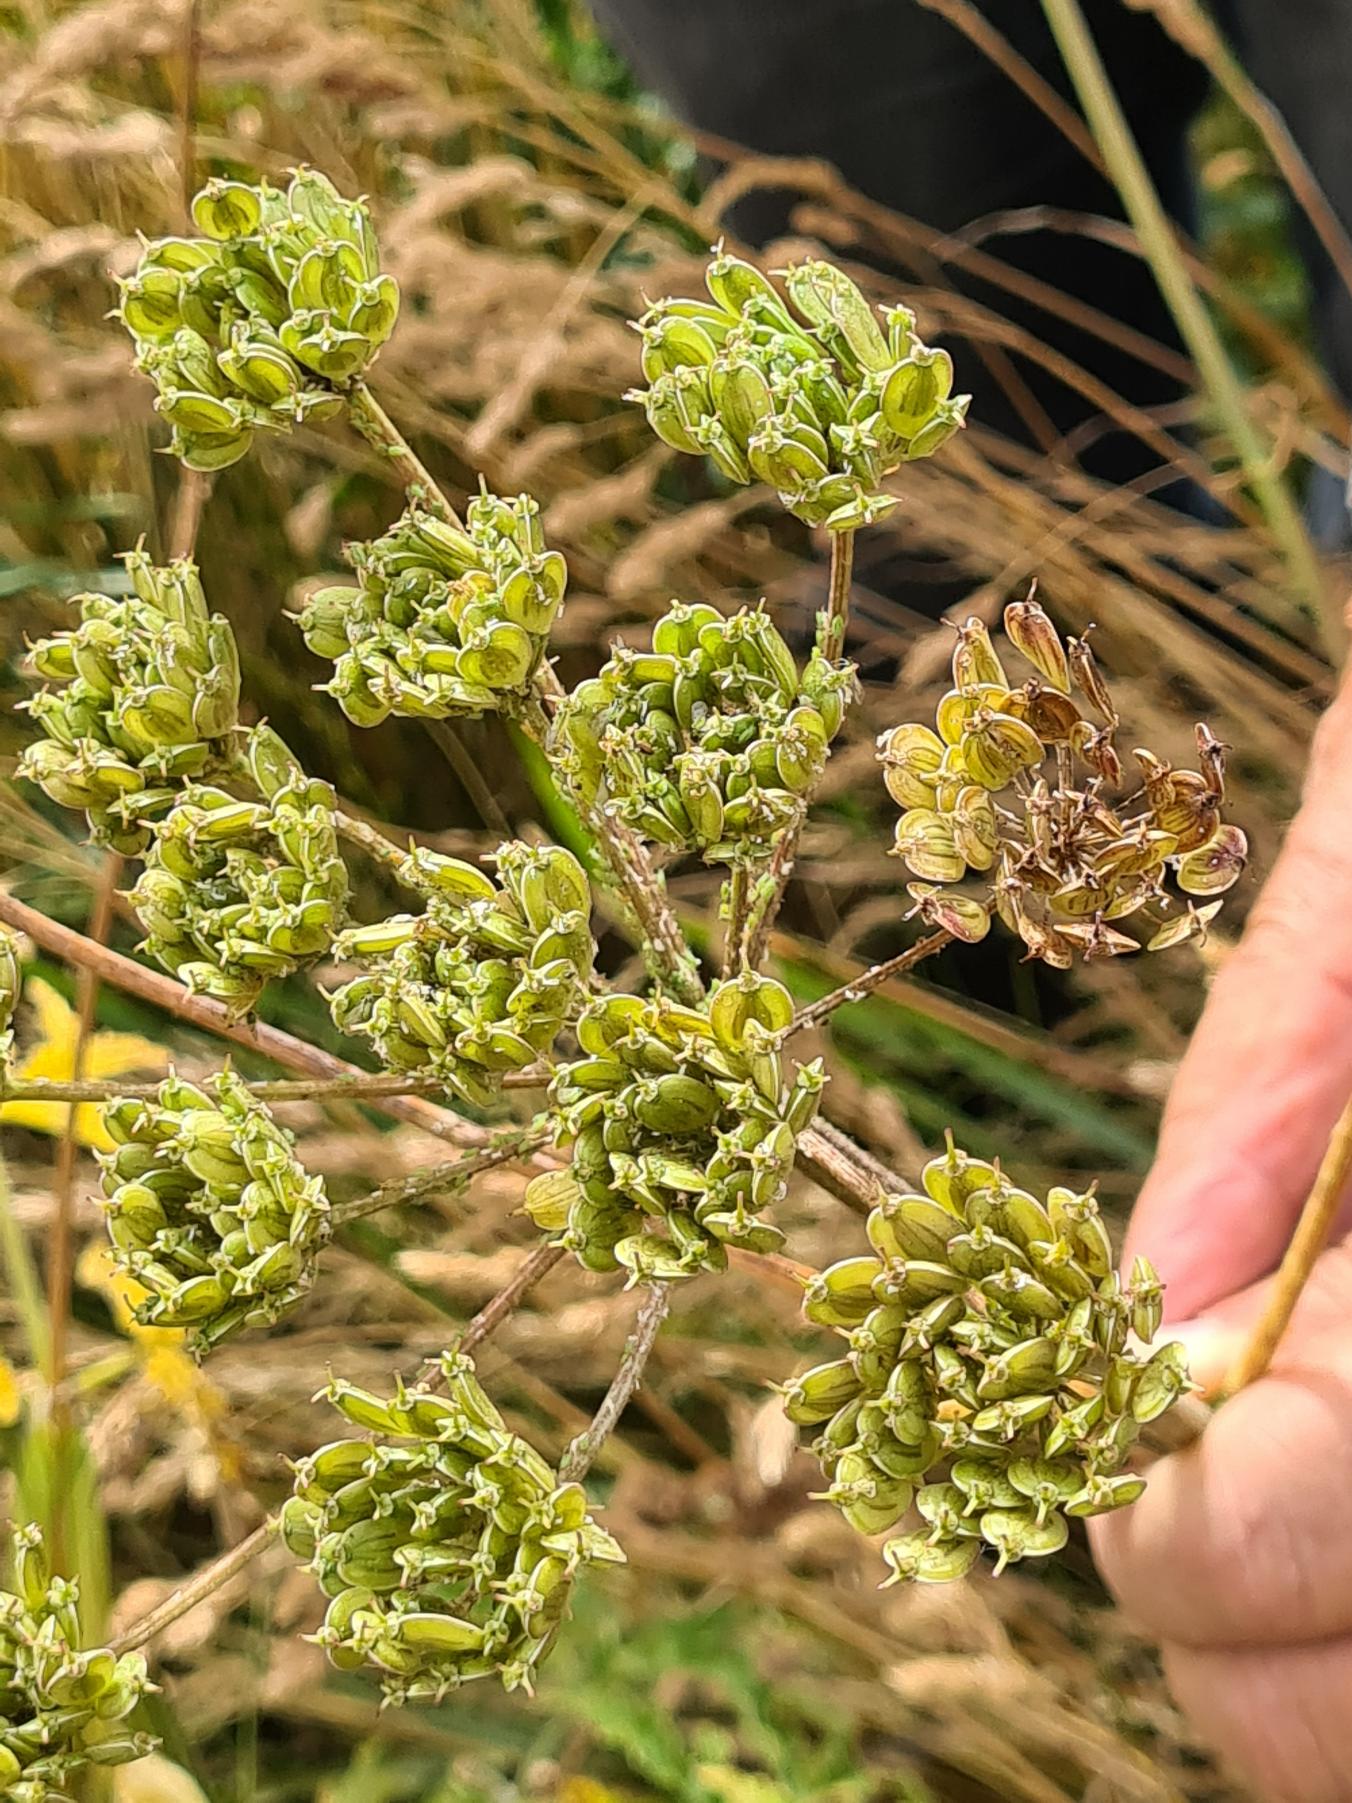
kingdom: Plantae
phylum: Tracheophyta
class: Magnoliopsida
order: Apiales
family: Apiaceae
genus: Heracleum
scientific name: Heracleum sphondylium
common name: Almindelig bjørneklo
